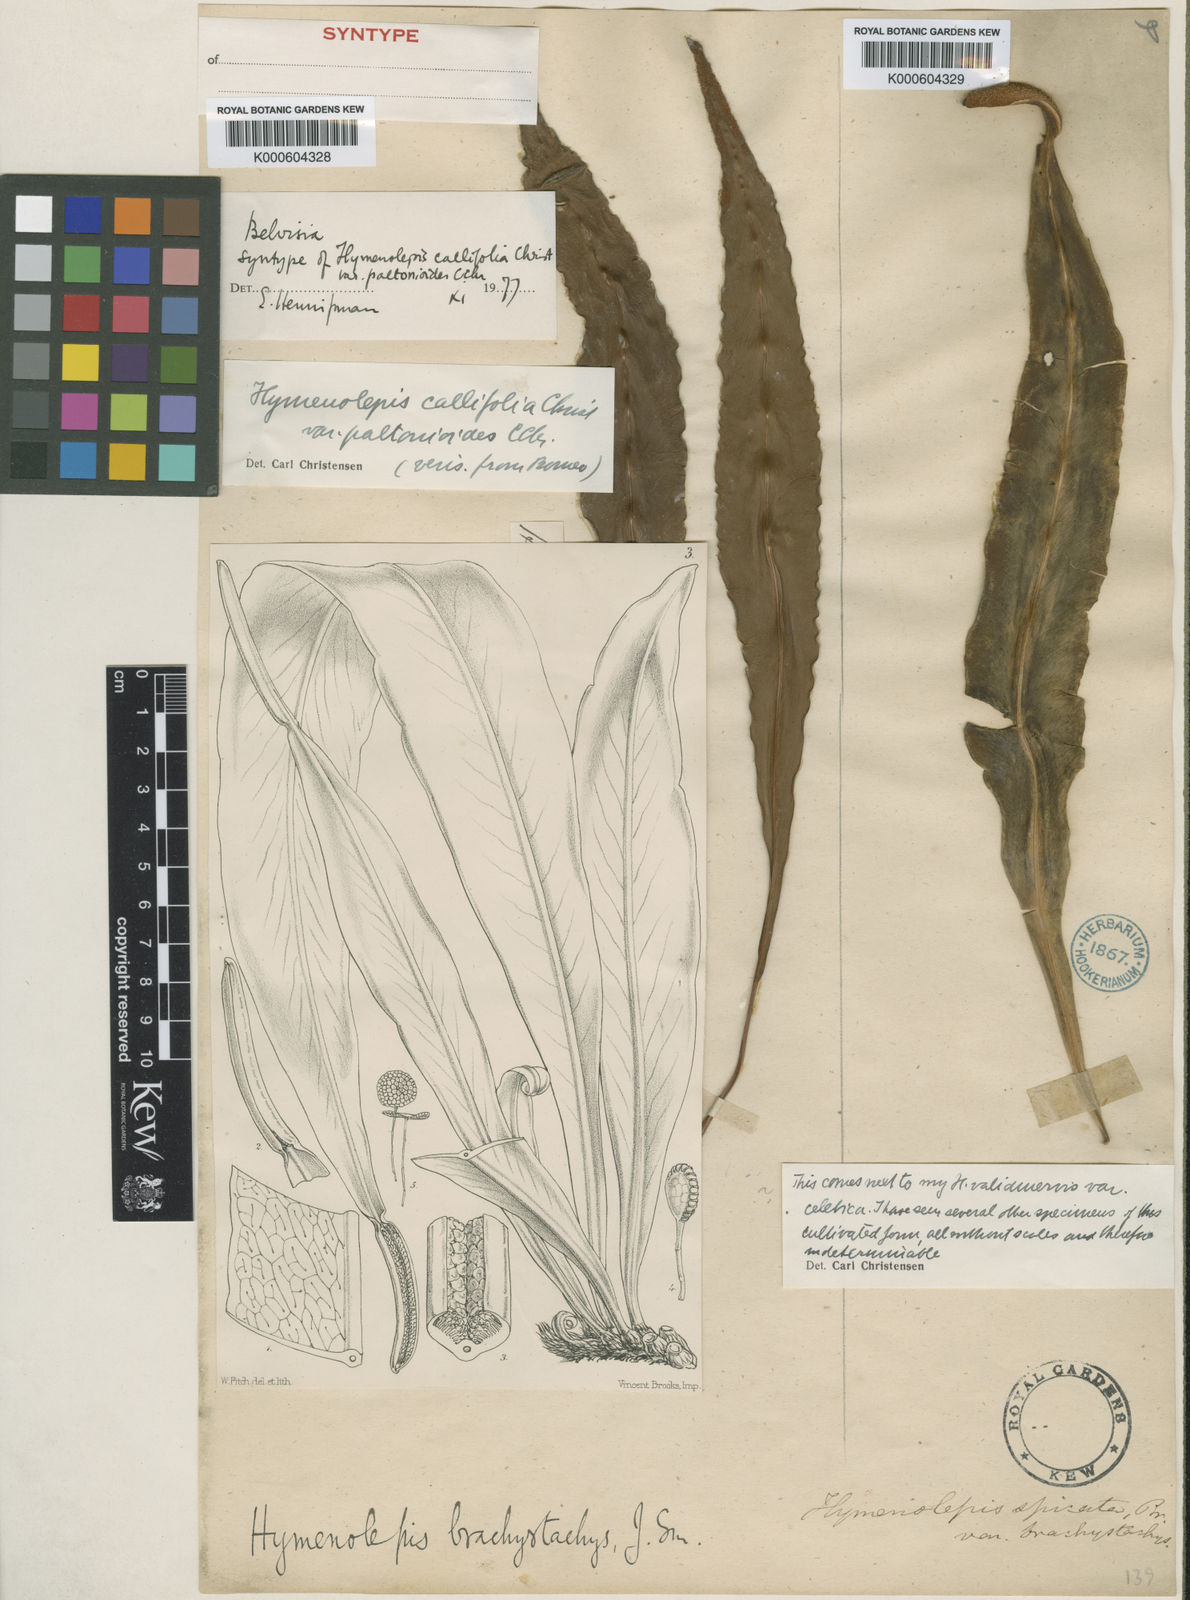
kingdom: Plantae
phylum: Tracheophyta
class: Polypodiopsida
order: Polypodiales
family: Polypodiaceae
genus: Lepisorus
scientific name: Lepisorus mucronatus
